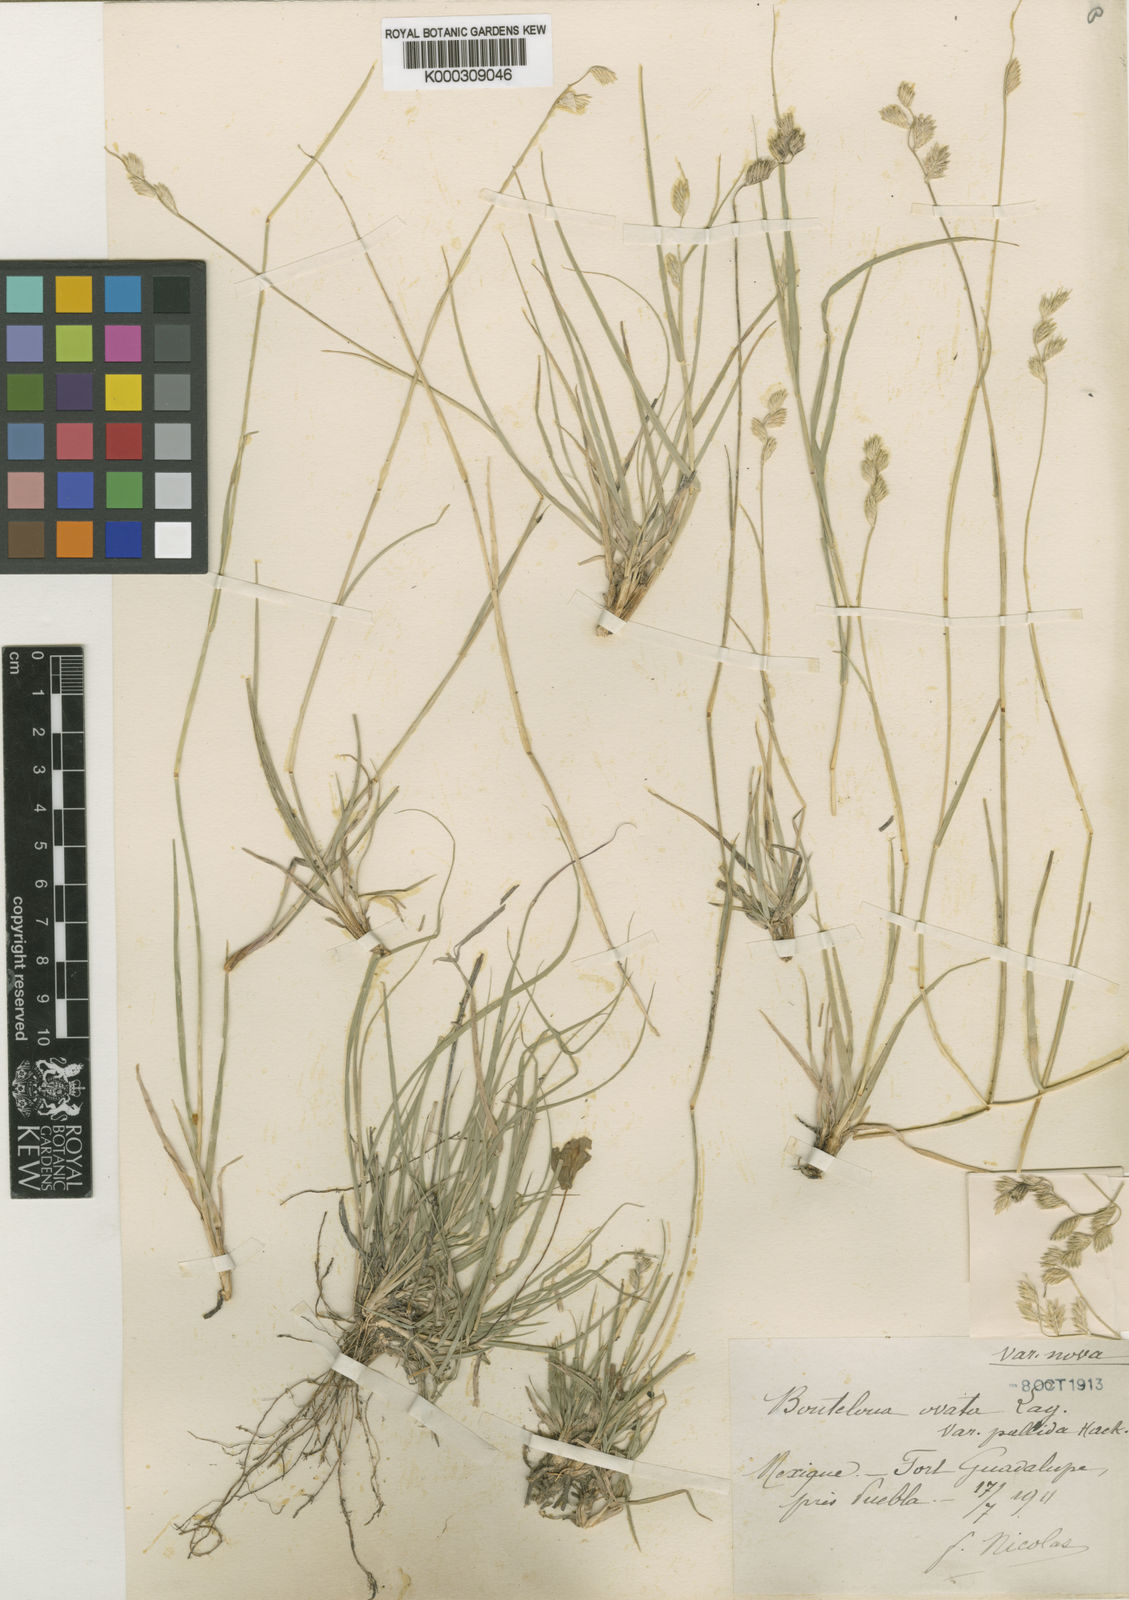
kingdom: Plantae
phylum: Tracheophyta
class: Liliopsida
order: Poales
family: Poaceae
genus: Bouteloua
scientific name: Bouteloua
